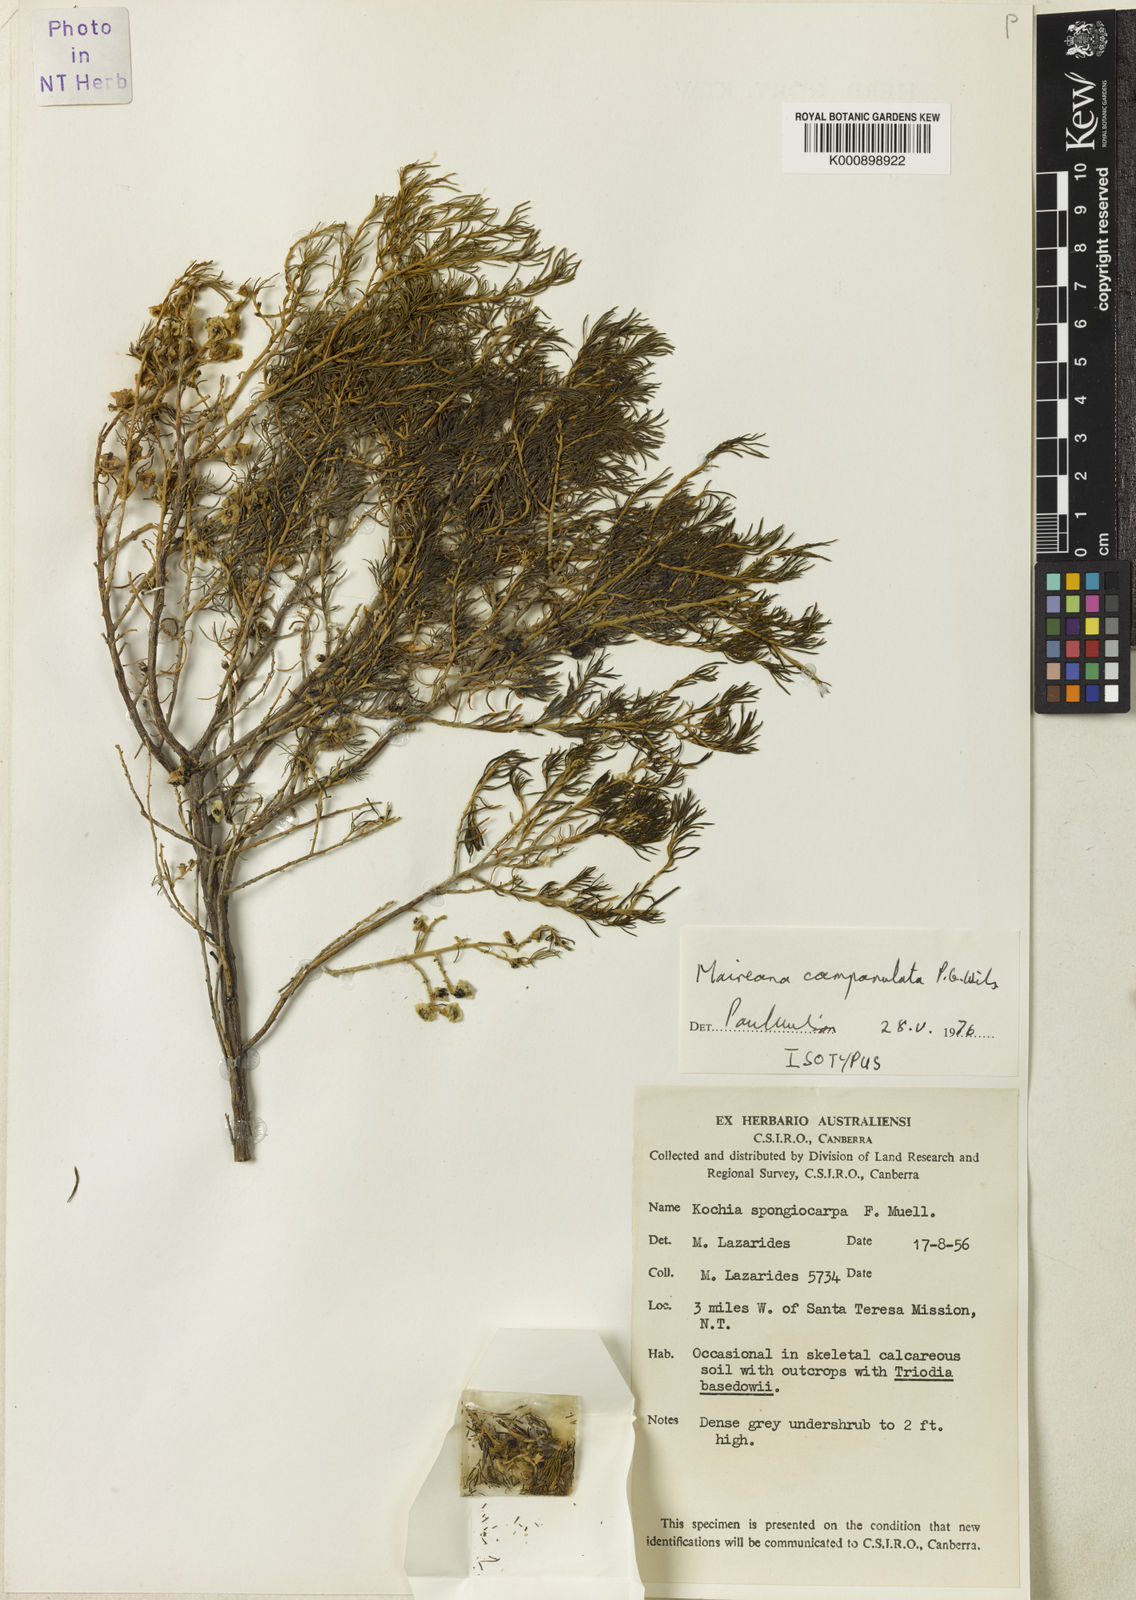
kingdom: Plantae
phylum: Tracheophyta
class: Magnoliopsida
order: Caryophyllales
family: Amaranthaceae
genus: Maireana
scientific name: Maireana campanulata
